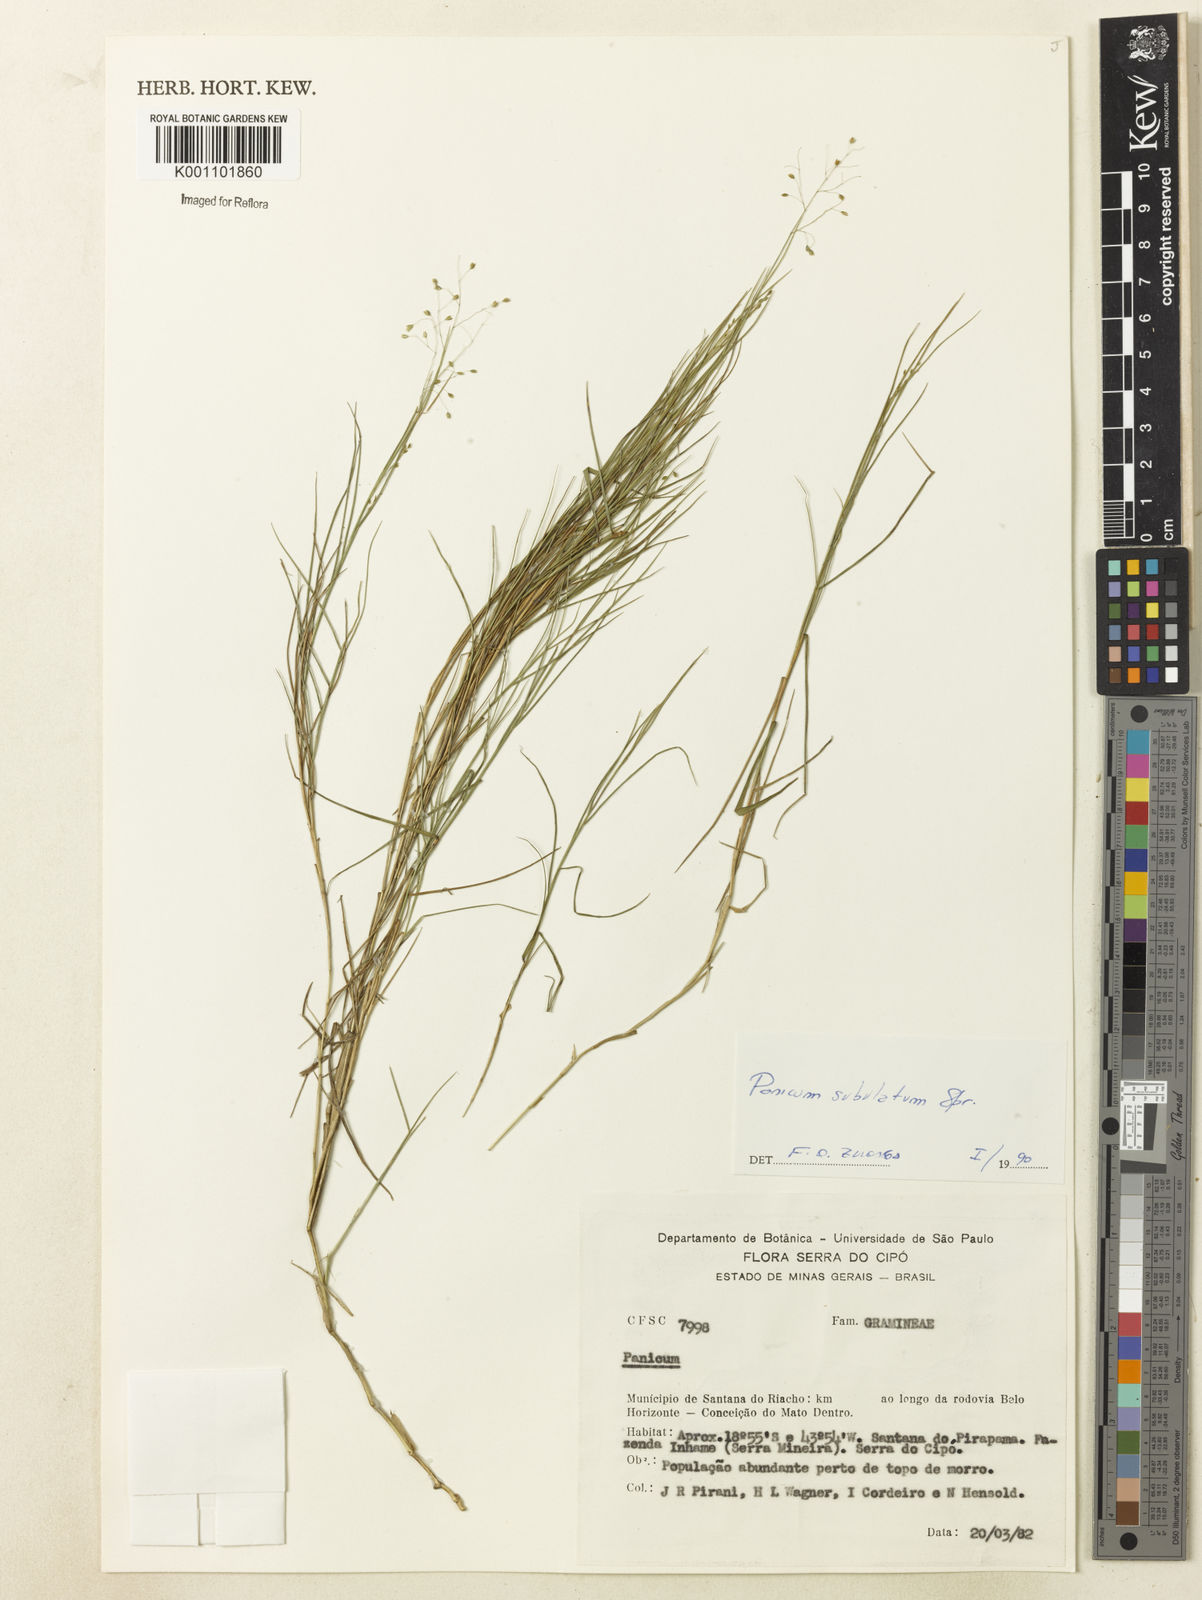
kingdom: Plantae
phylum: Tracheophyta
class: Liliopsida
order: Poales
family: Poaceae
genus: Trichanthecium
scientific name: Trichanthecium distichophyllum
